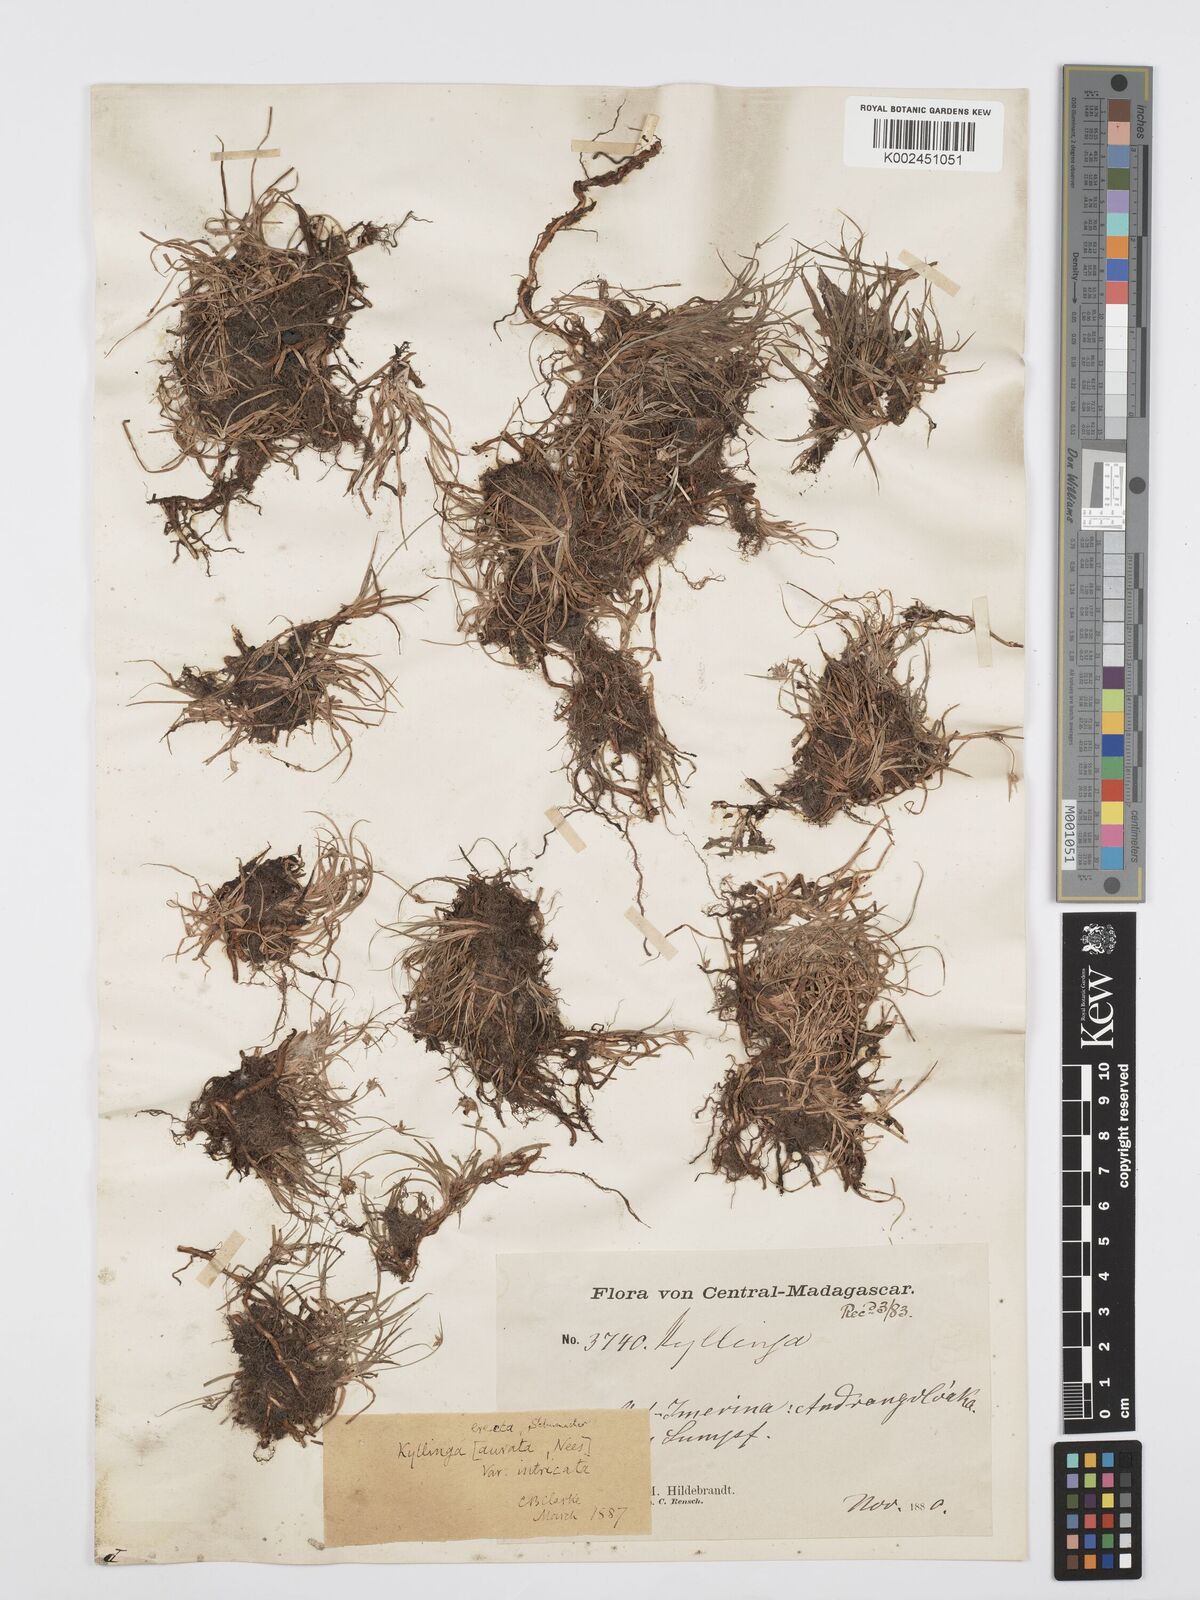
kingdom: Plantae
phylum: Tracheophyta
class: Liliopsida
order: Poales
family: Cyperaceae
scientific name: Cyperaceae
